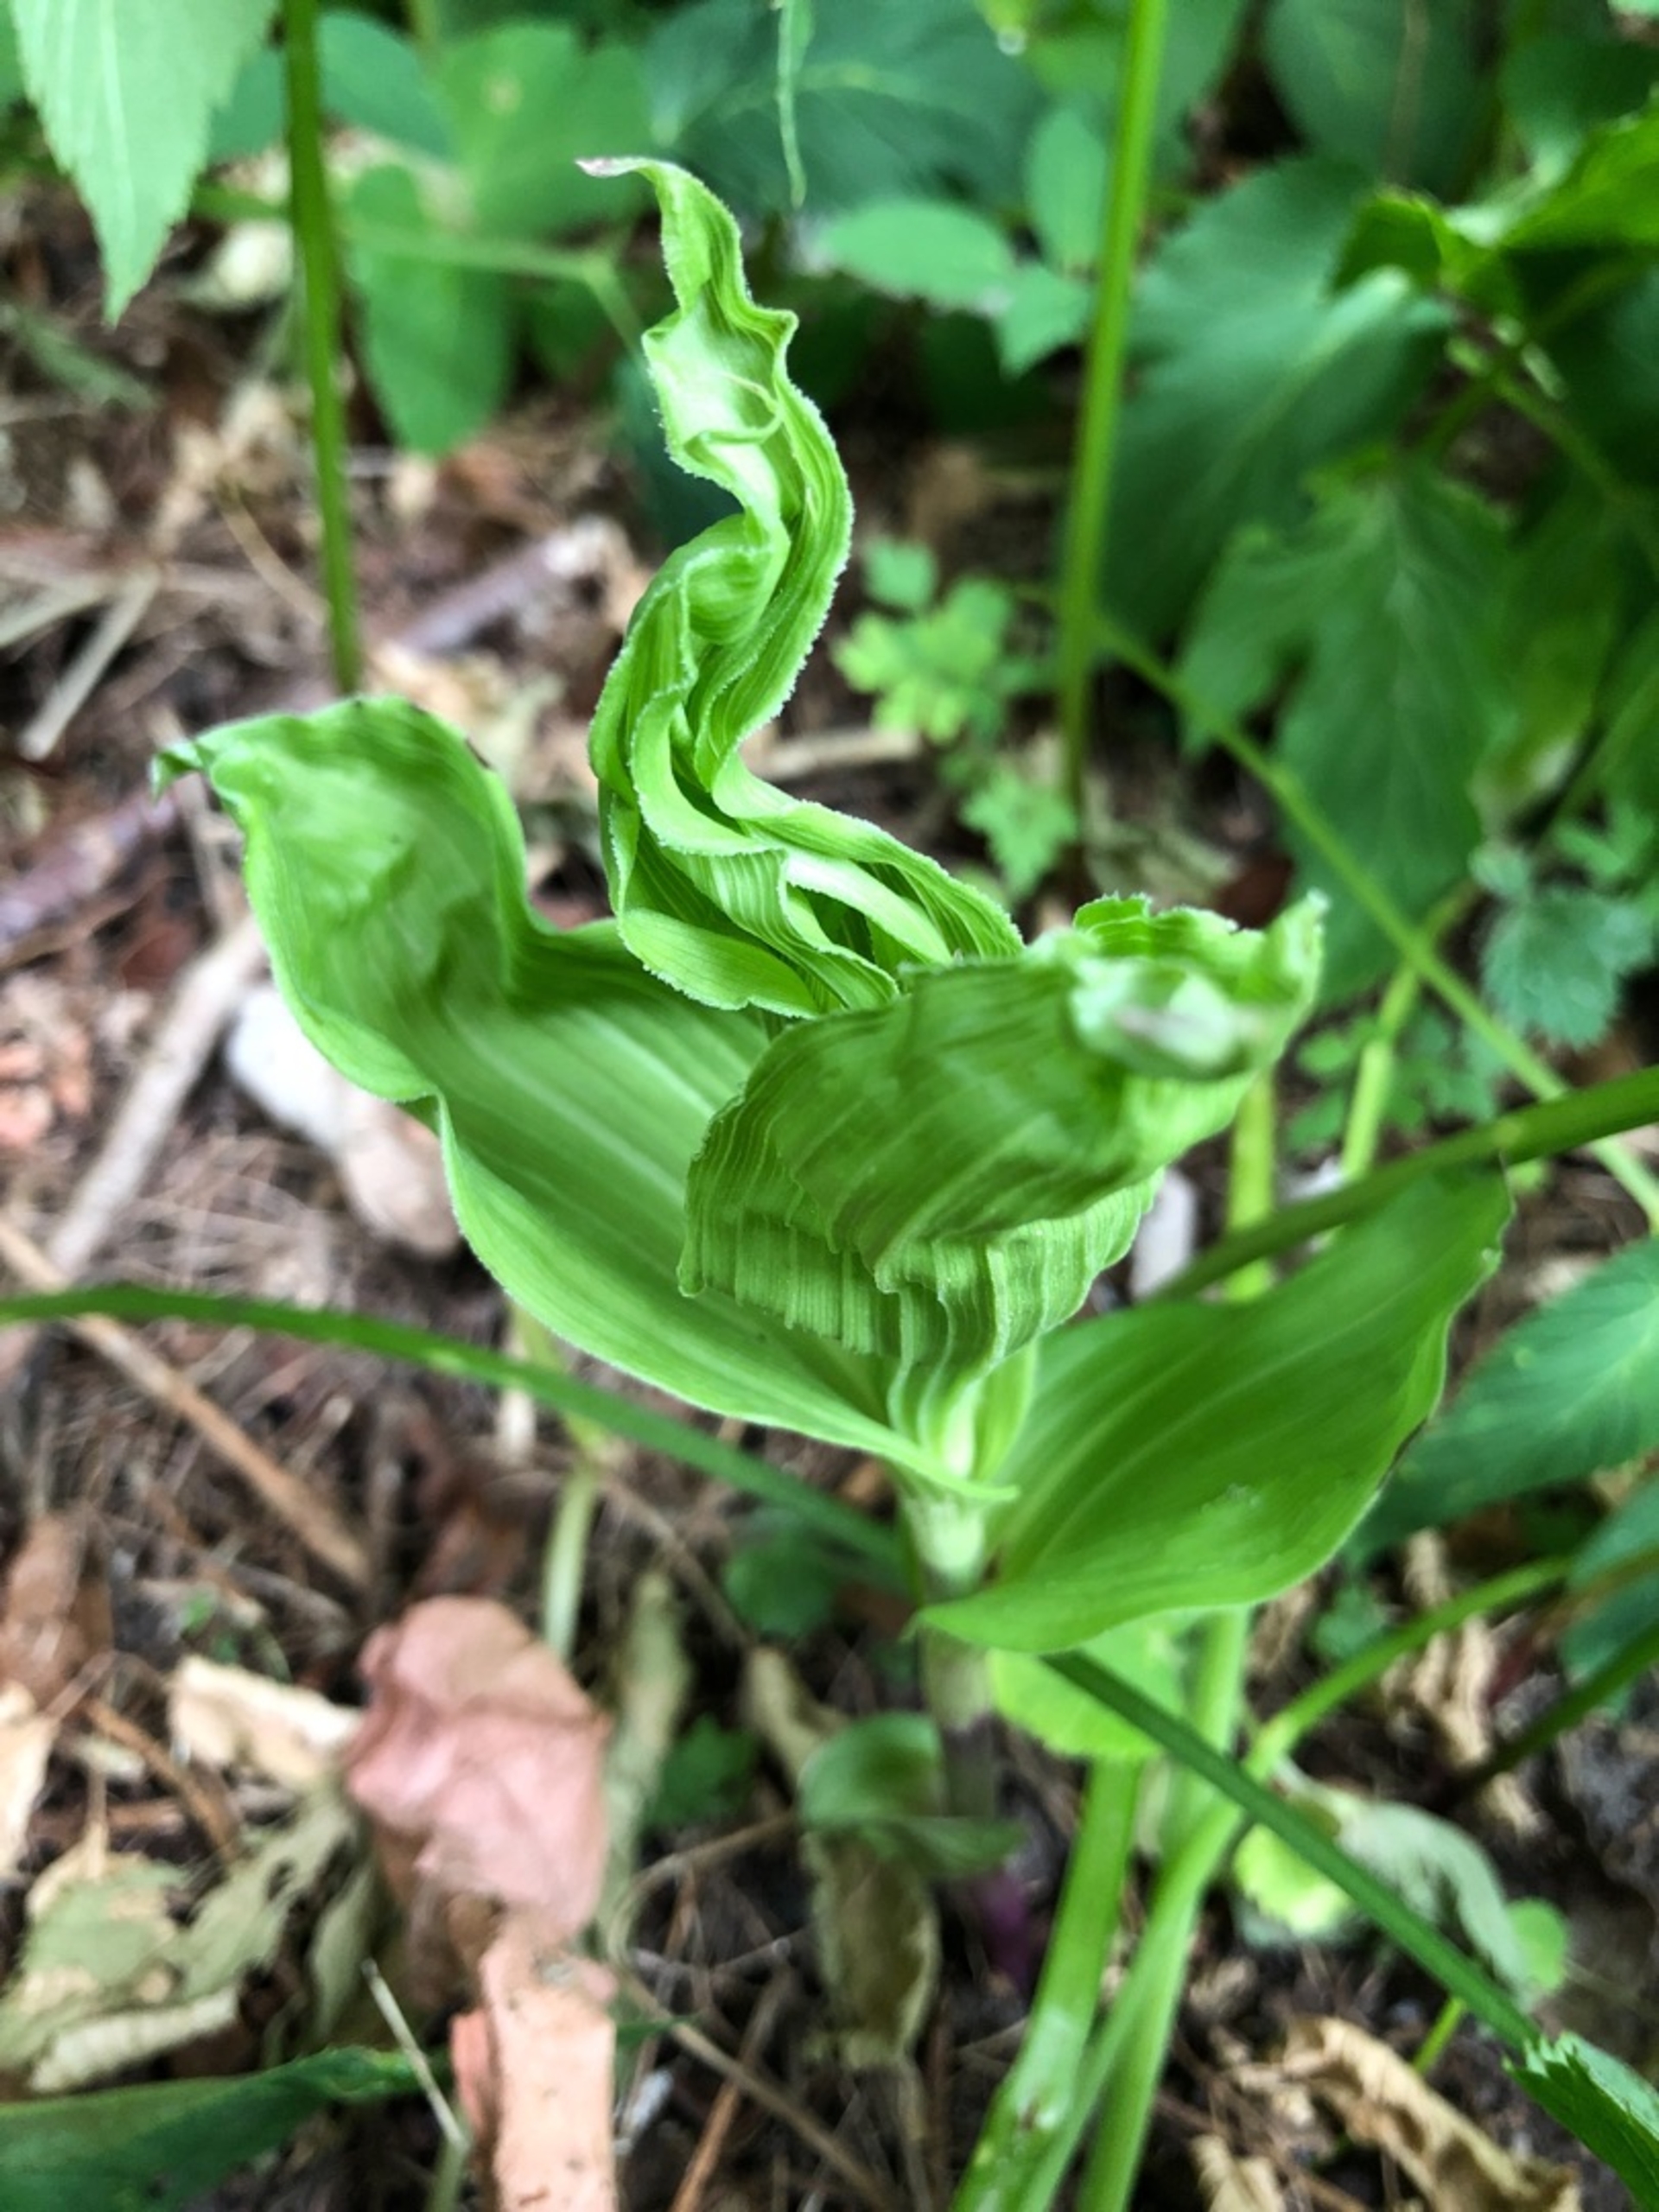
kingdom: Plantae
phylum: Tracheophyta
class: Liliopsida
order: Asparagales
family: Orchidaceae
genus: Epipactis
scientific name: Epipactis helleborine
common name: Skov-hullæbe
